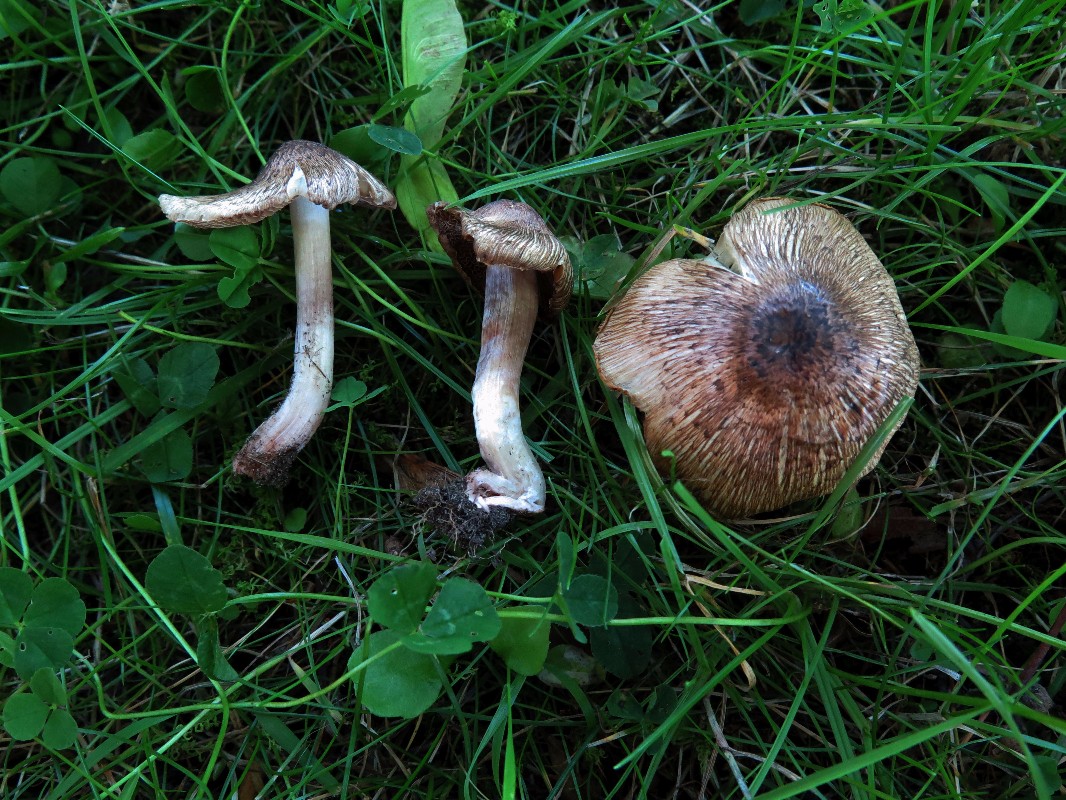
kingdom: Fungi
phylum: Basidiomycota
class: Agaricomycetes
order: Agaricales
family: Inocybaceae
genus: Inosperma
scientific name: Inosperma adaequatum
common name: vinrød trævlhat
